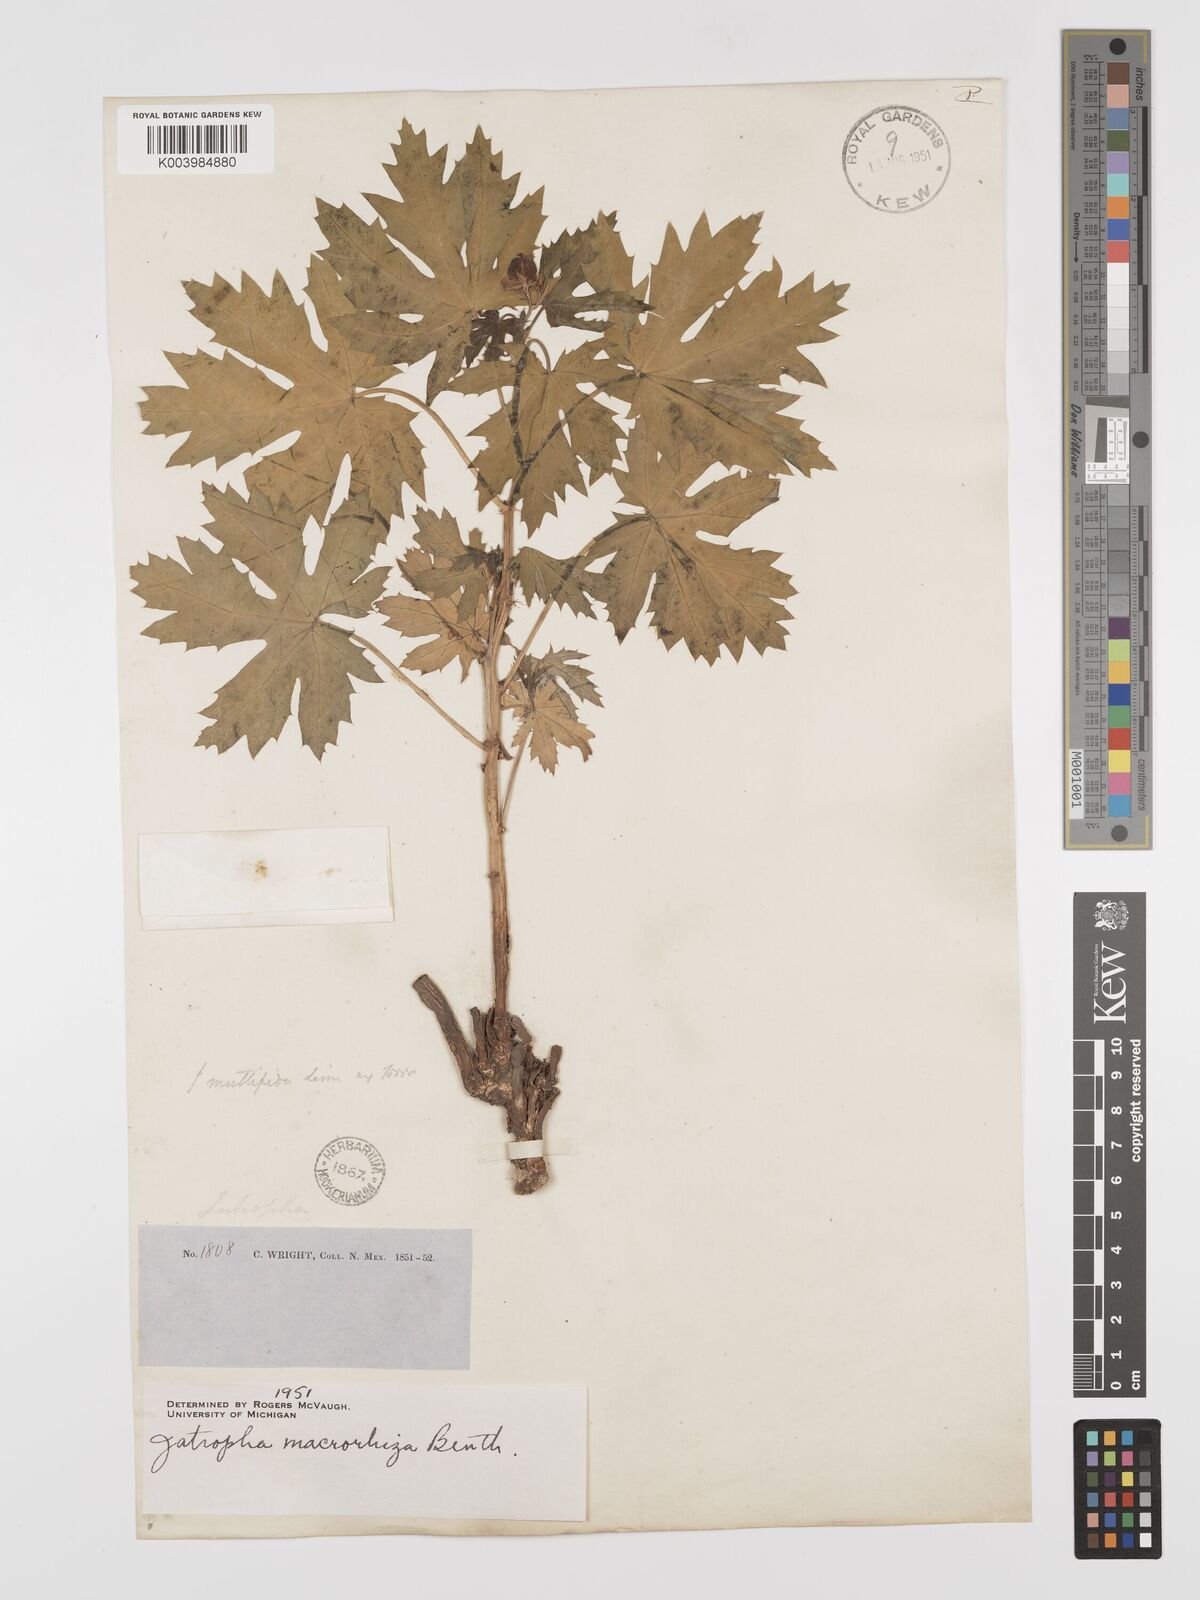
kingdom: Plantae
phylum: Tracheophyta
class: Magnoliopsida
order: Malpighiales
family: Euphorbiaceae
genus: Jatropha
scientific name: Jatropha macrorhiza
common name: Ragged nettlespurge
